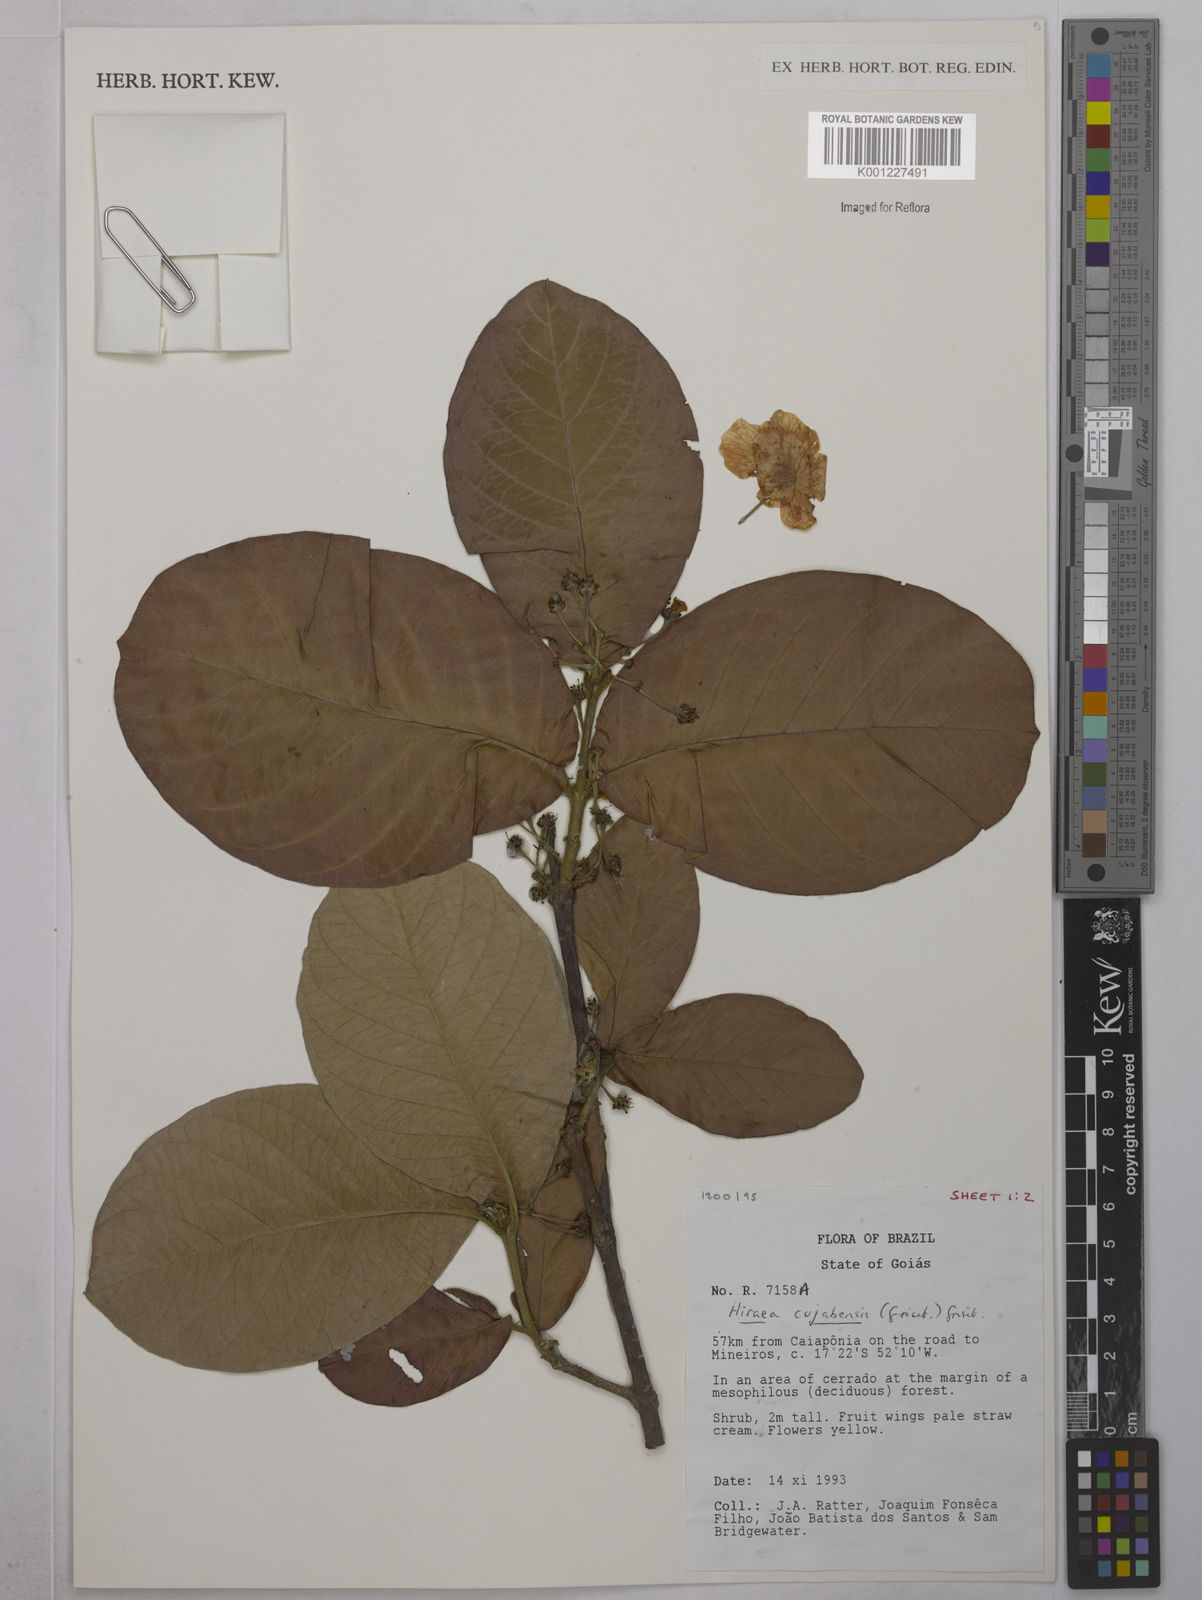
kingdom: Plantae
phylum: Tracheophyta
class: Magnoliopsida
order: Malpighiales
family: Malpighiaceae
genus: Hiraea
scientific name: Hiraea cuiabensis
